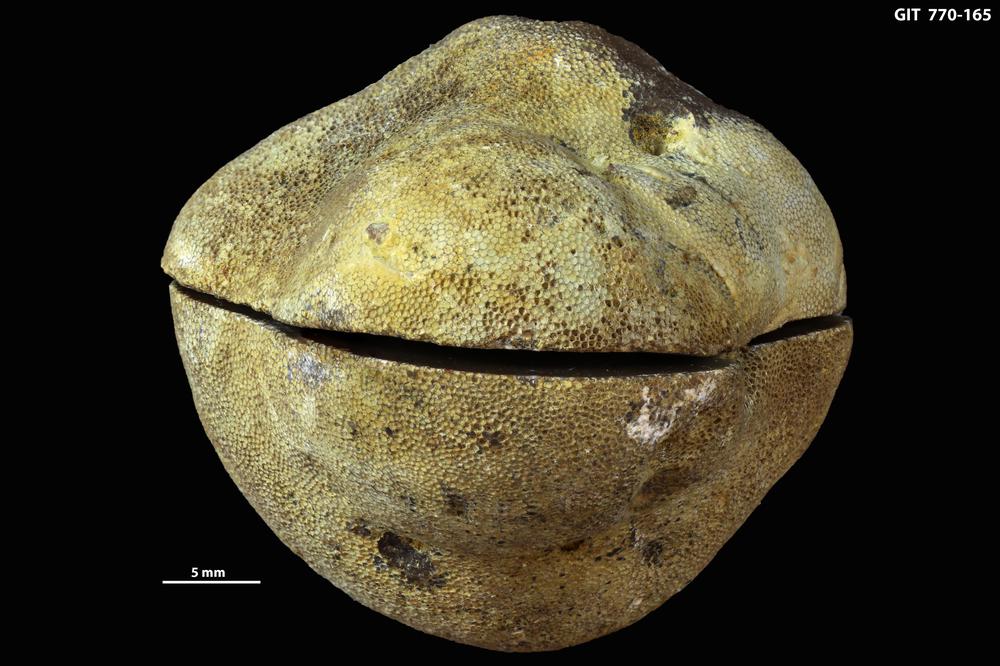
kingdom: Animalia
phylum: Bryozoa
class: Stenolaemata
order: Trepostomatida
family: Monticuliporidae
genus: Mesotrypa
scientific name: Mesotrypa expressa
